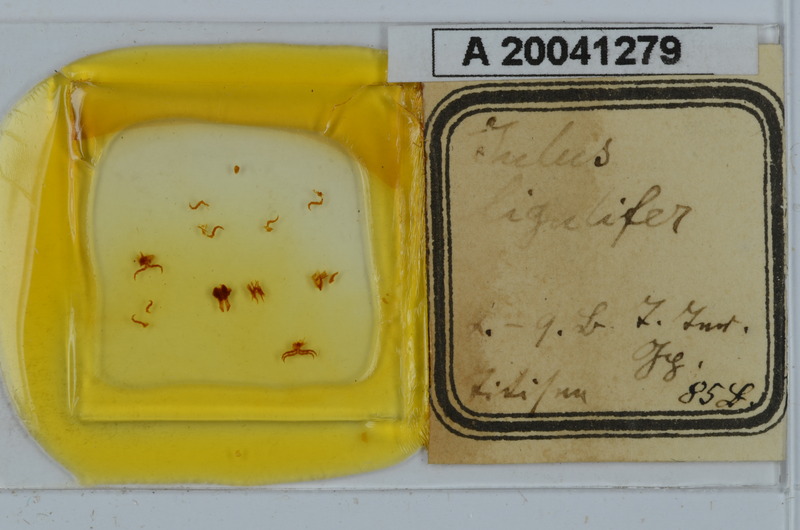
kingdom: Animalia
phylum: Arthropoda
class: Diplopoda
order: Julida
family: Julidae
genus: Julus
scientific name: Julus scandinavius
